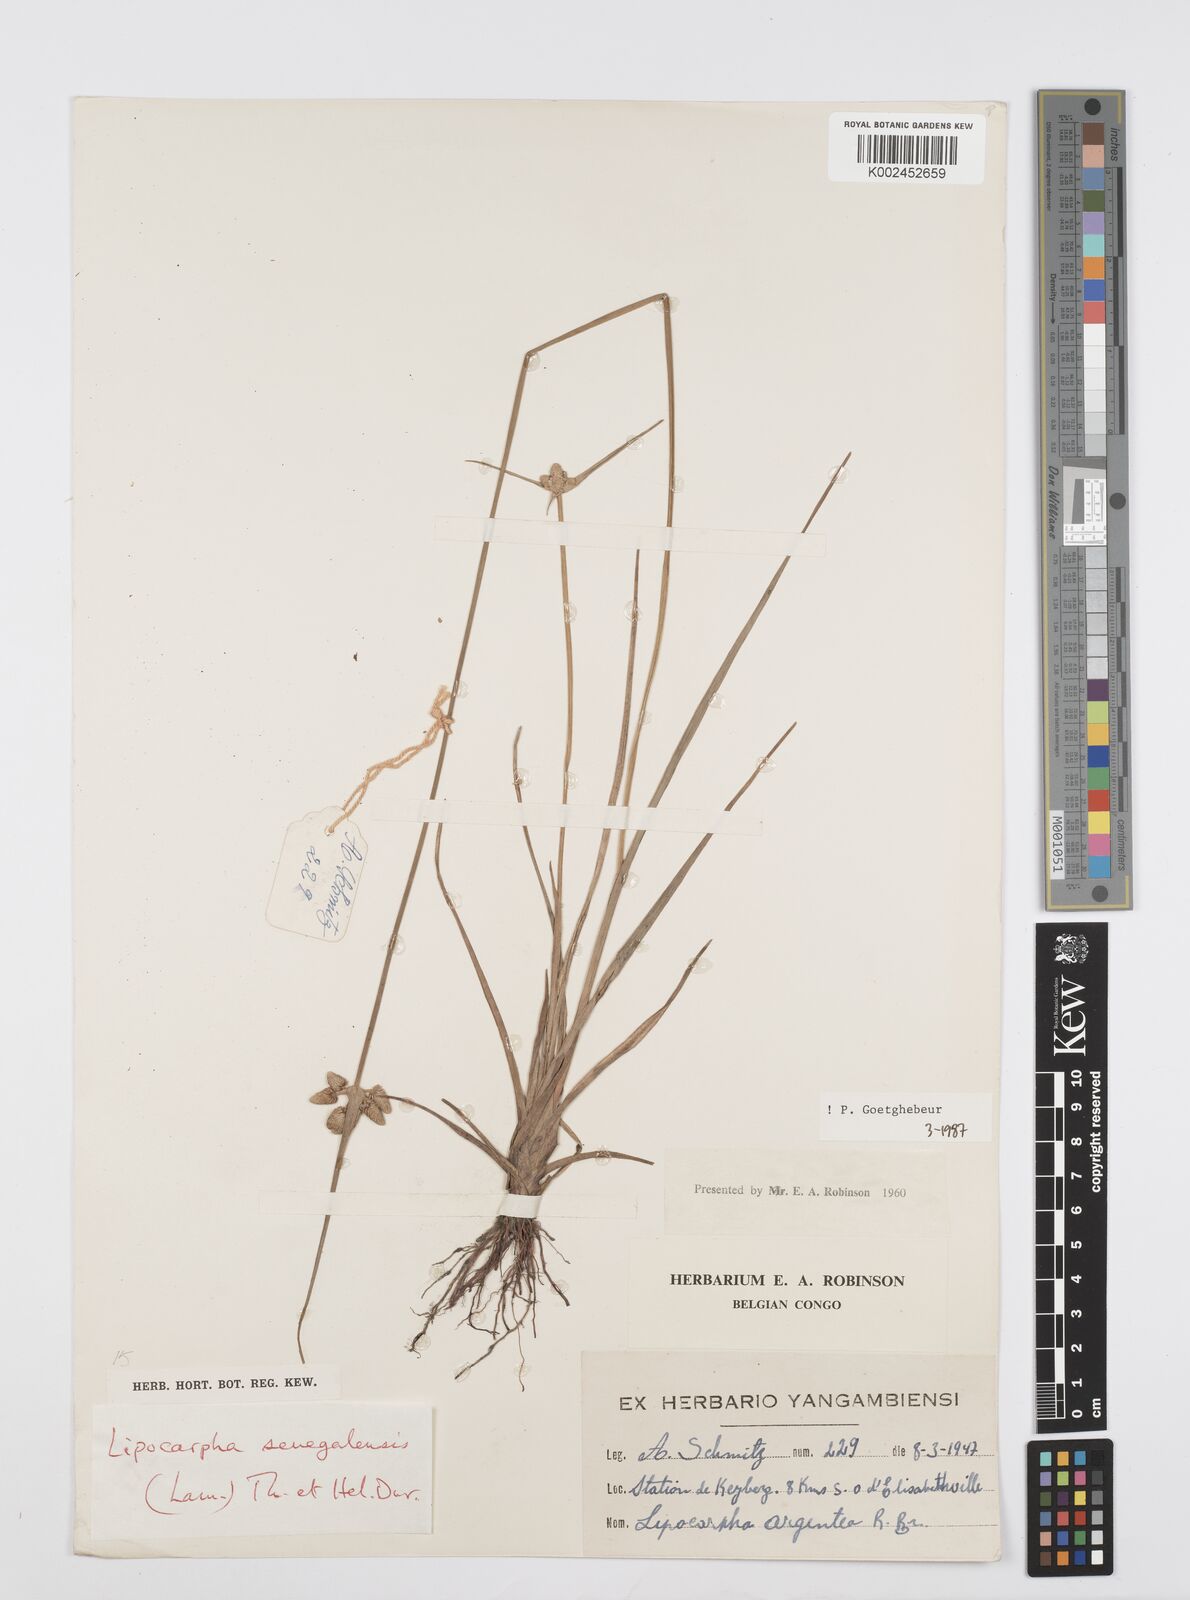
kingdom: Plantae
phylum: Tracheophyta
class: Liliopsida
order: Poales
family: Cyperaceae
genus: Cyperus
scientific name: Cyperus albescens
